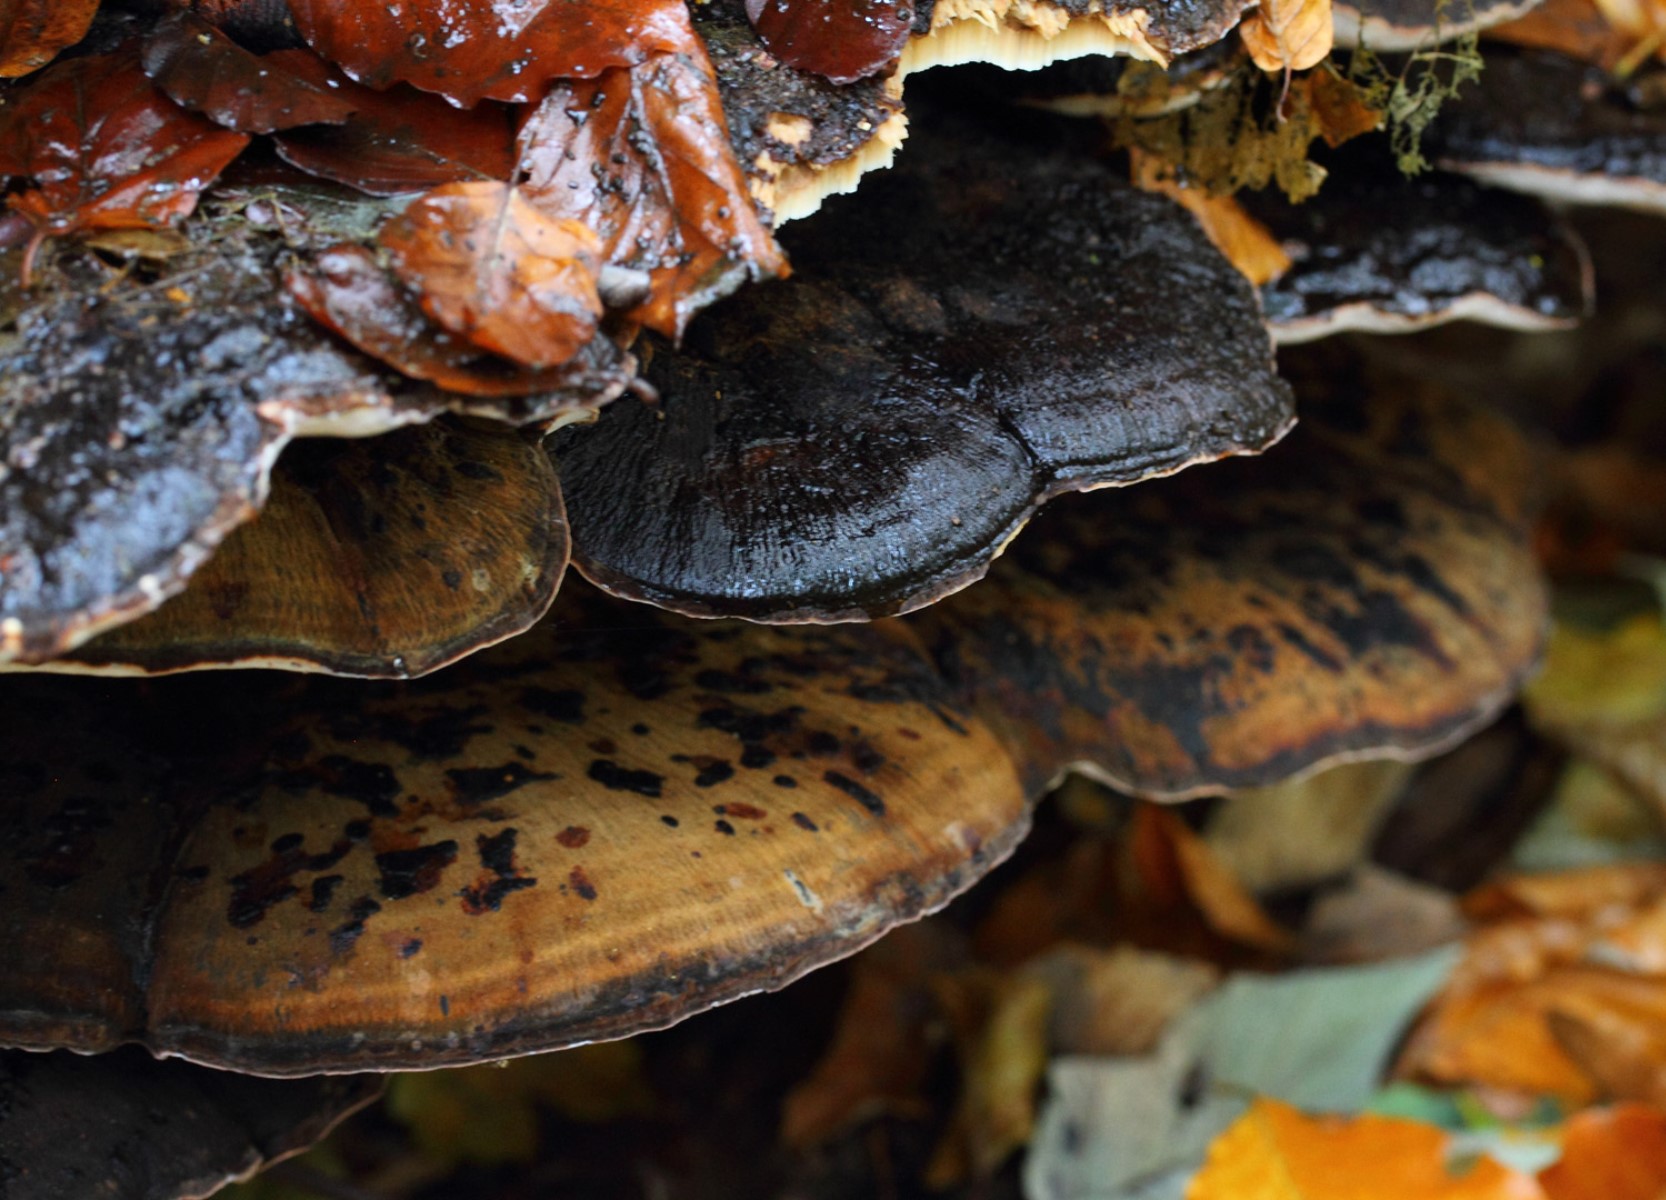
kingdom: Fungi
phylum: Basidiomycota
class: Agaricomycetes
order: Polyporales
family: Polyporaceae
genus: Ganoderma
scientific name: Ganoderma applanatum
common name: flad lakporesvamp
